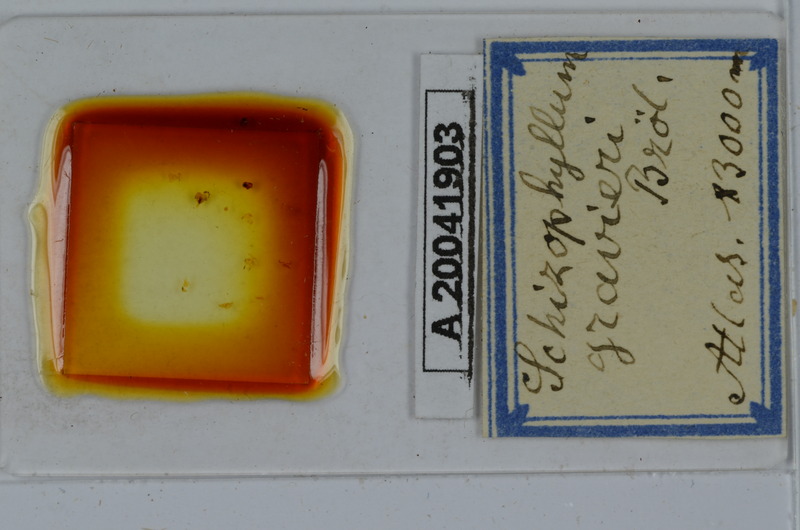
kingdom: Animalia
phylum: Arthropoda
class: Diplopoda
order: Julida
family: Julidae
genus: Schizophyllum
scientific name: Schizophyllum gravieri
